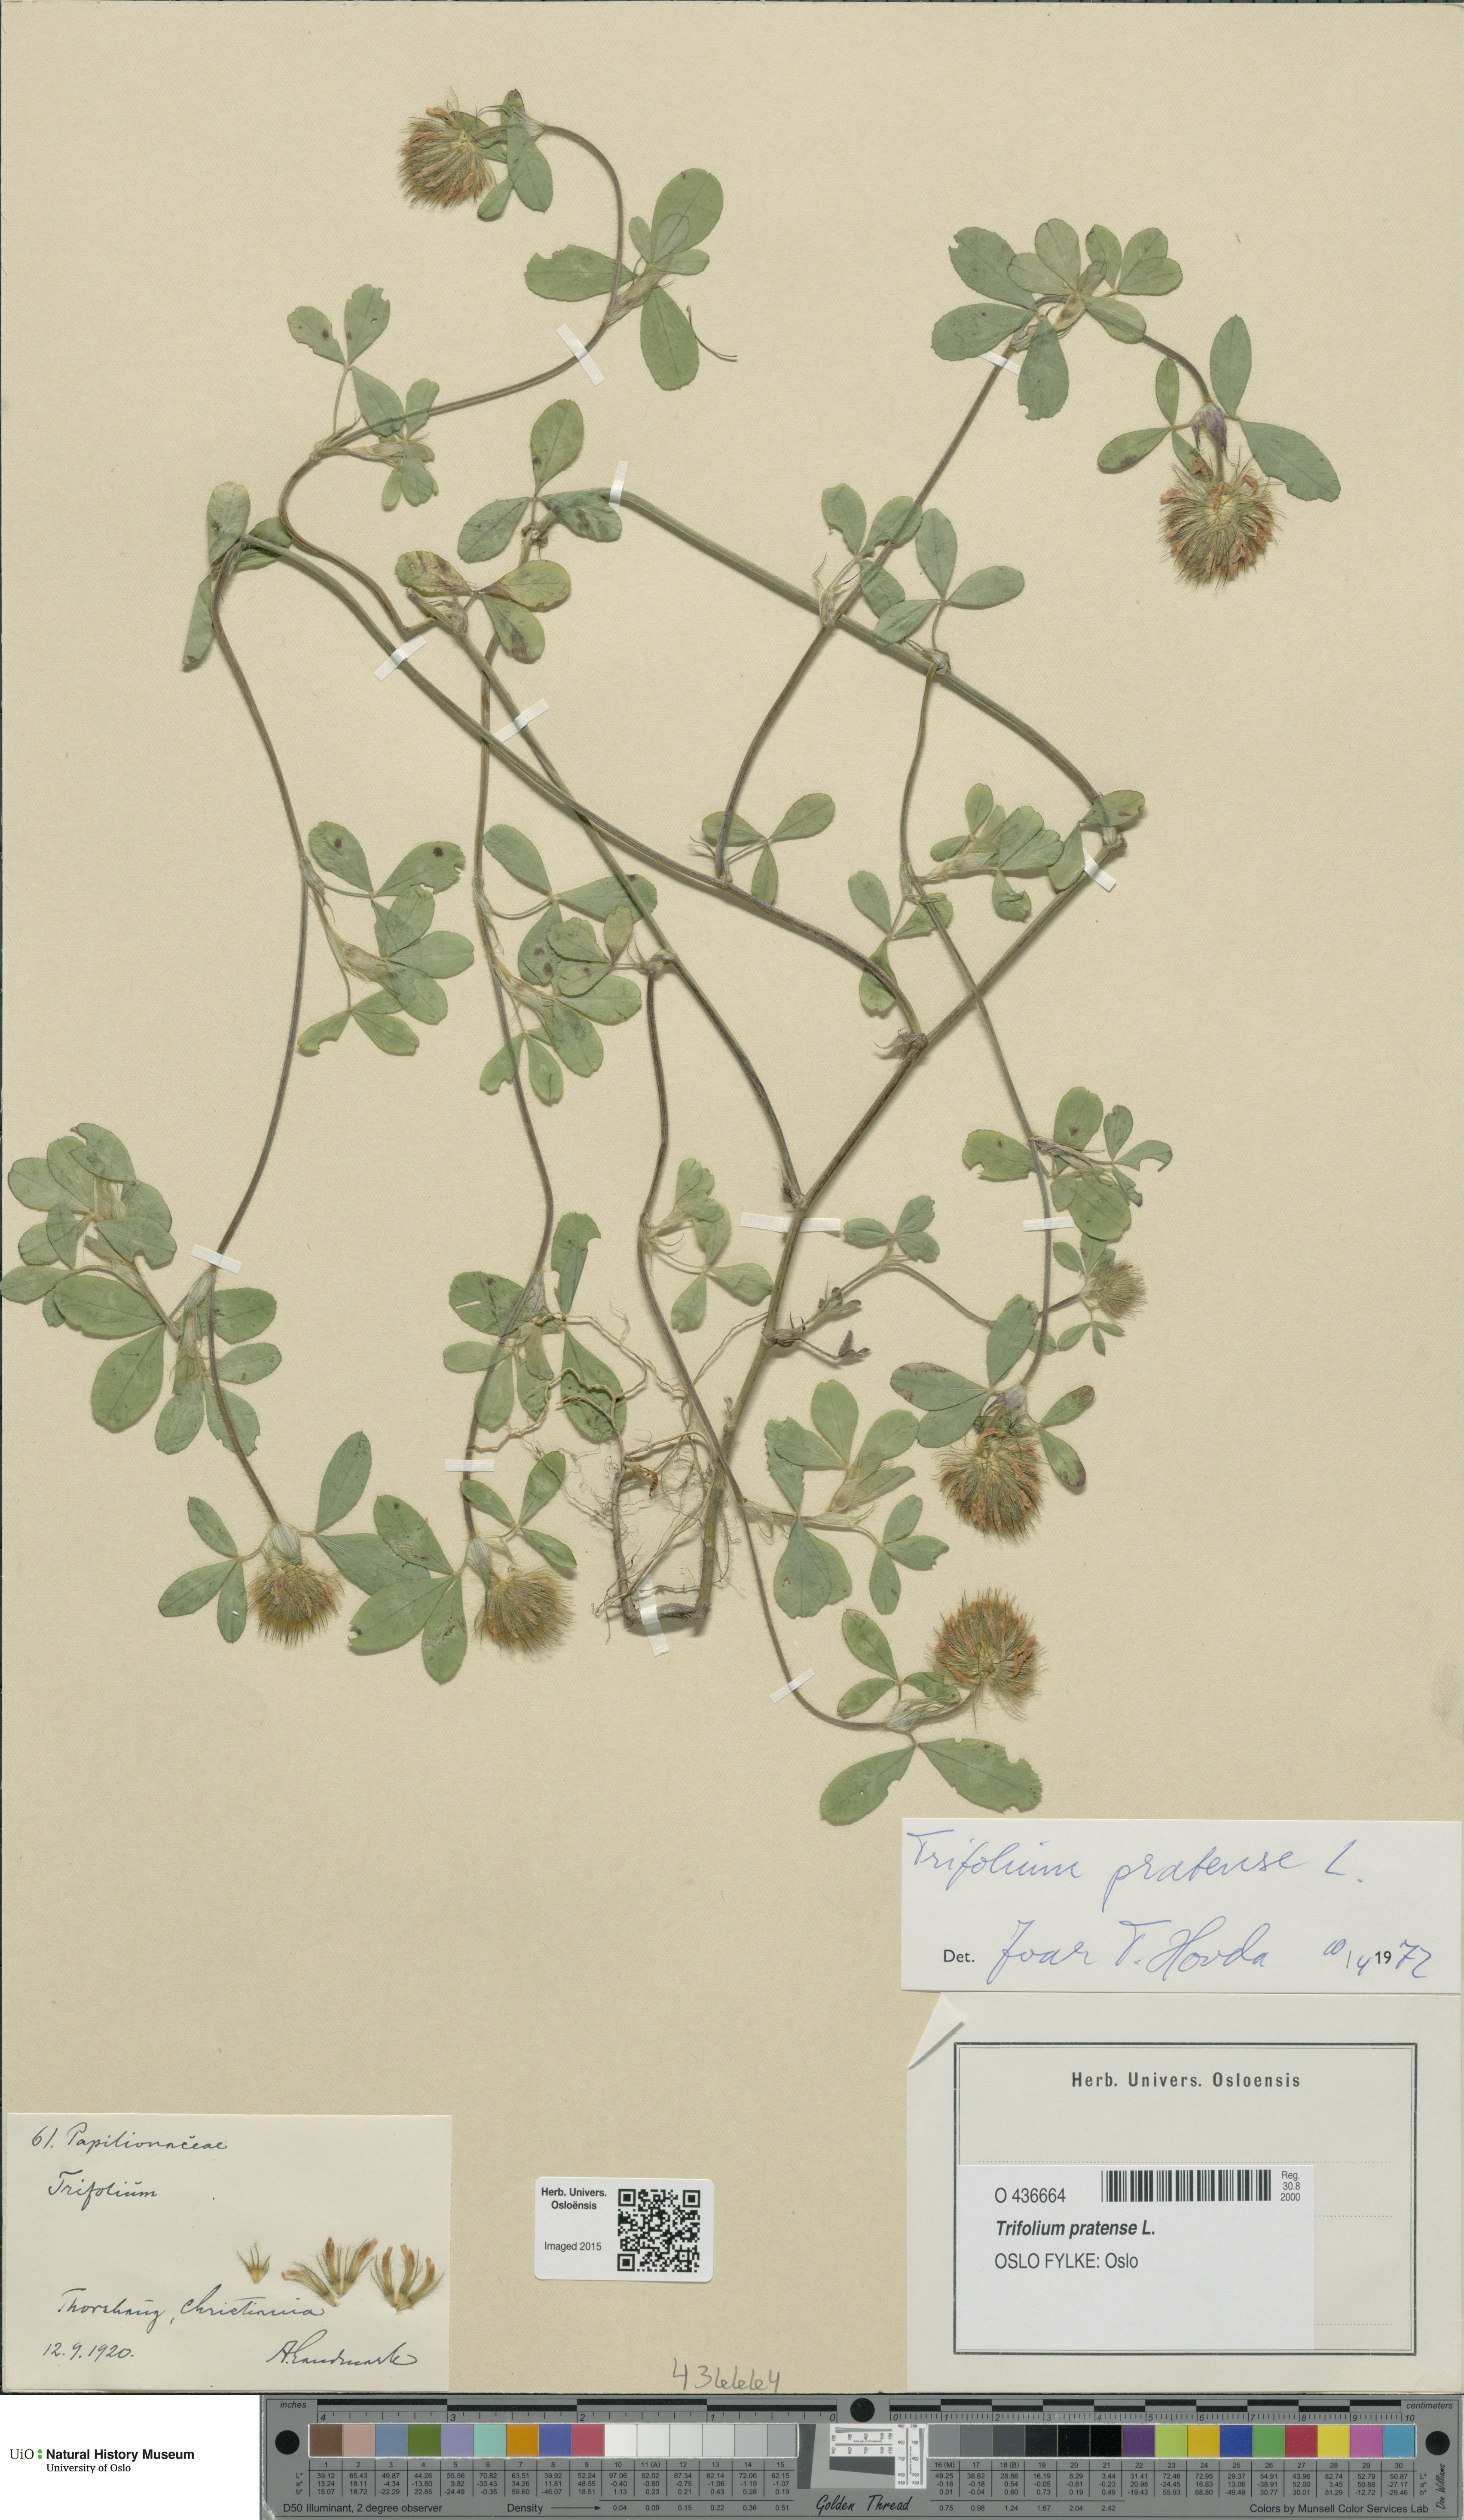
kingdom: Plantae
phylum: Tracheophyta
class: Magnoliopsida
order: Fabales
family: Fabaceae
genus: Trifolium
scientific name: Trifolium pratense
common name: Red clover
